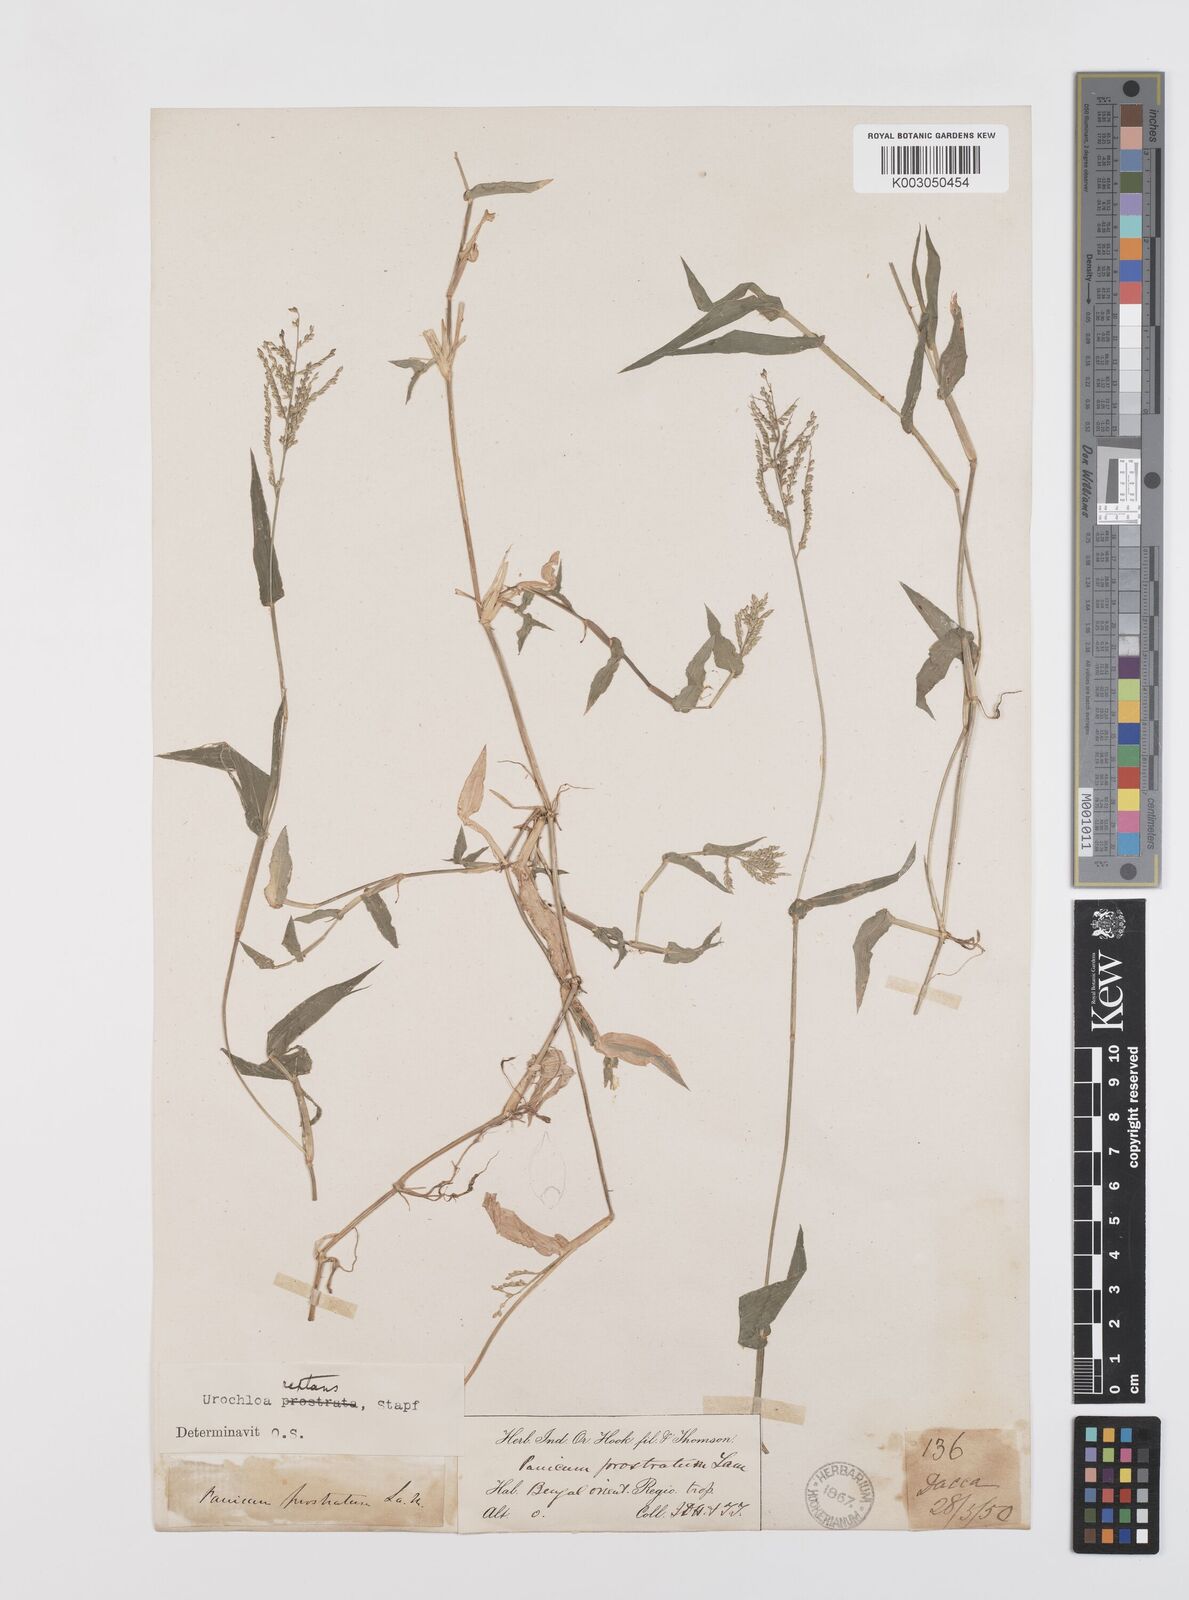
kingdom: Plantae
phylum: Tracheophyta
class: Liliopsida
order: Poales
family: Poaceae
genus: Urochloa
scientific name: Urochloa reptans
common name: Sprawling signalgrass
